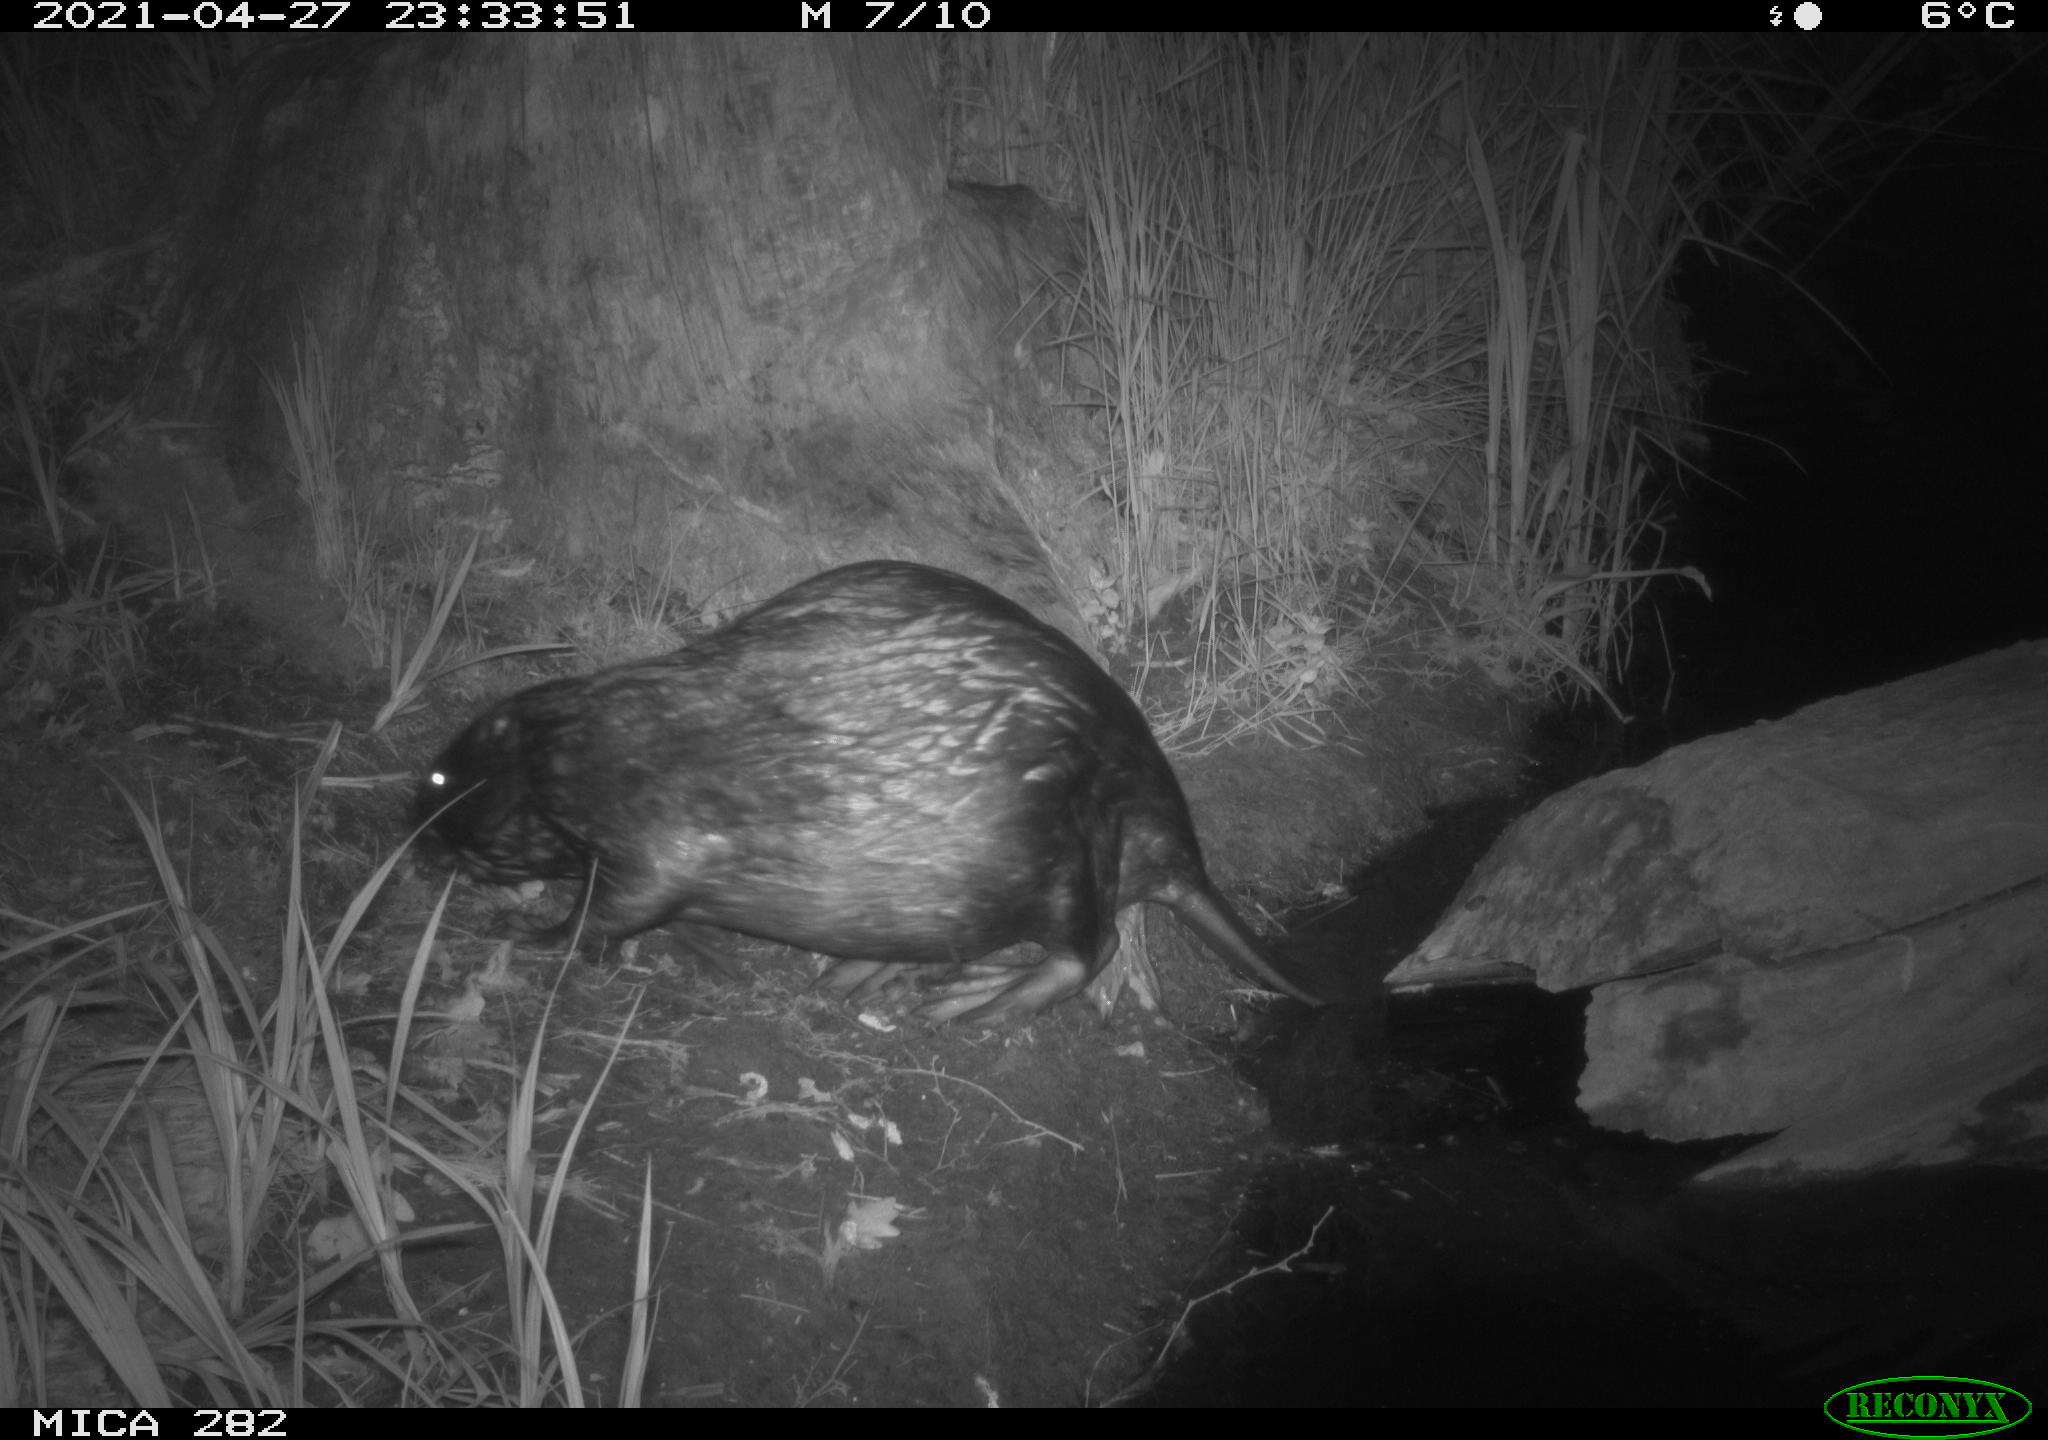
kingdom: Animalia
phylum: Chordata
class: Mammalia
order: Rodentia
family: Castoridae
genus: Castor
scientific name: Castor fiber
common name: Eurasian beaver
